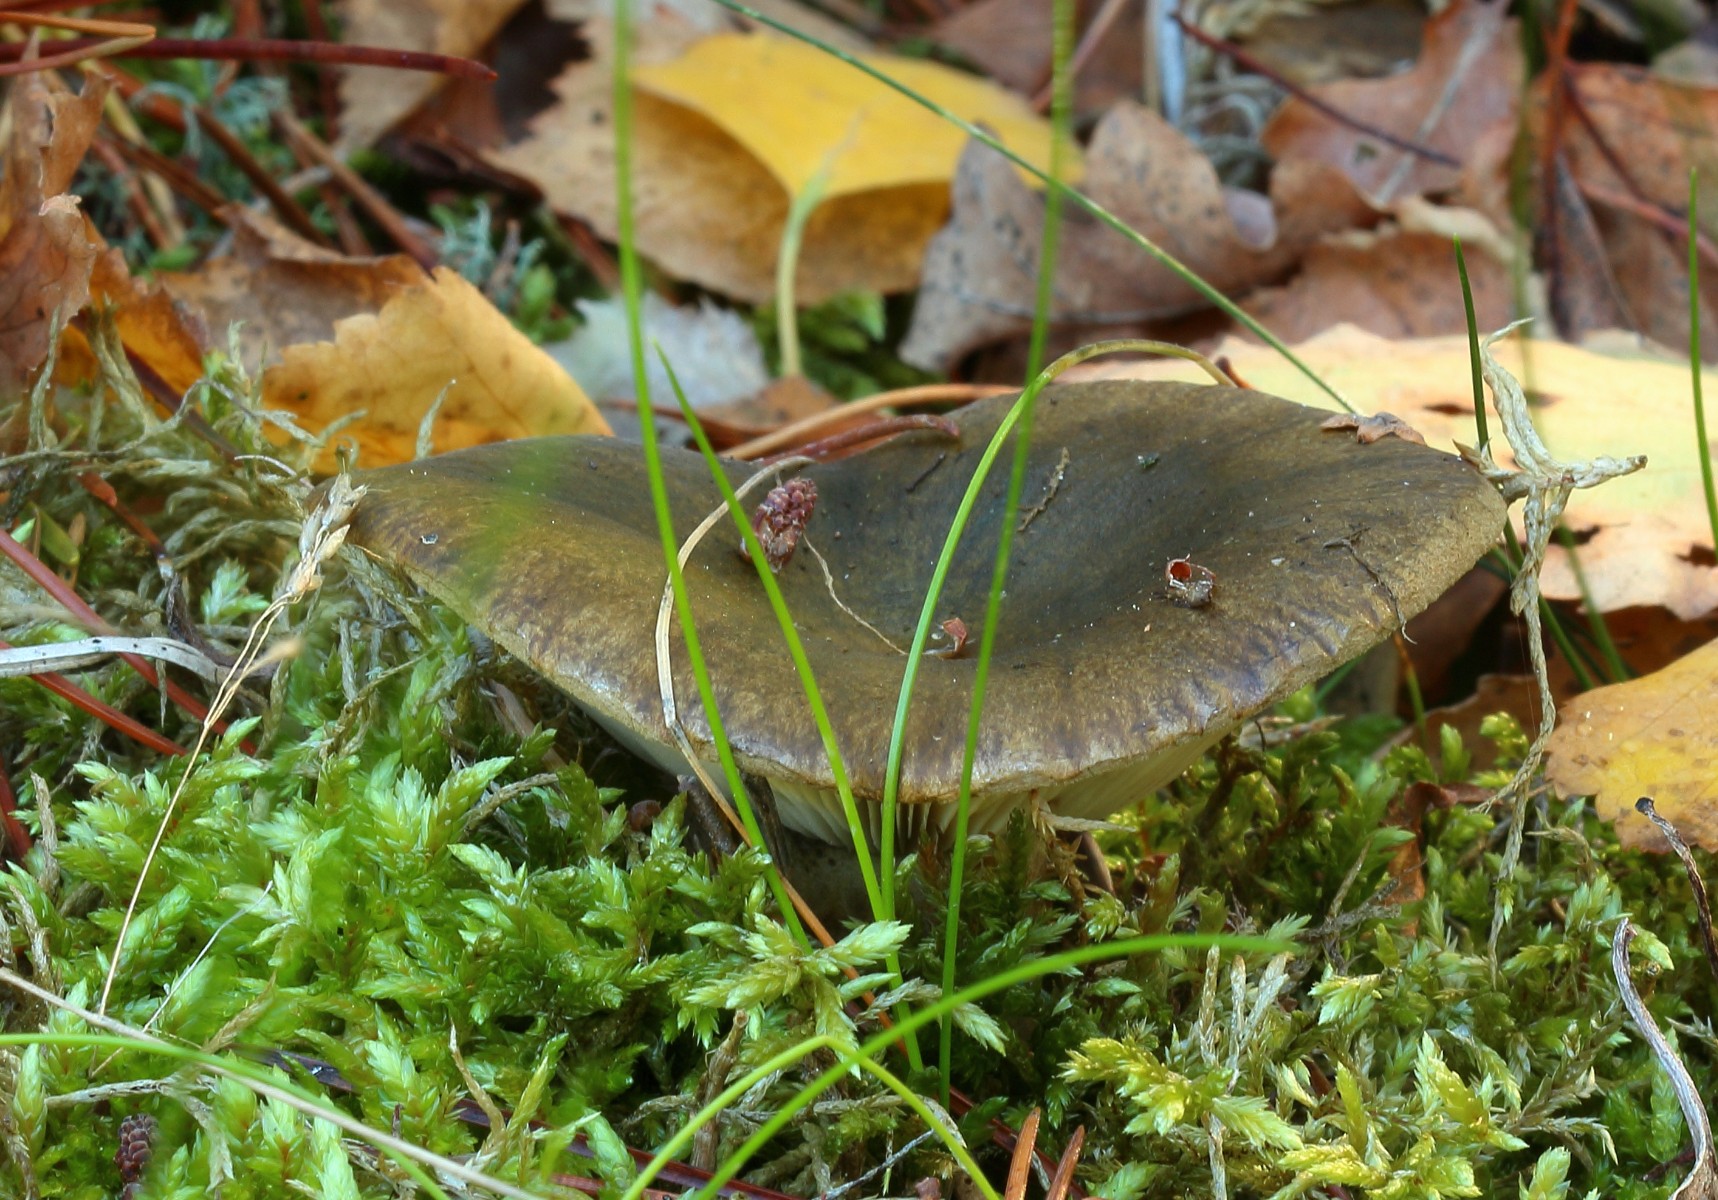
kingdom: Fungi
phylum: Basidiomycota
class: Agaricomycetes
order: Russulales
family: Russulaceae
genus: Lactarius
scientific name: Lactarius necator
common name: manddraber-mælkehat
